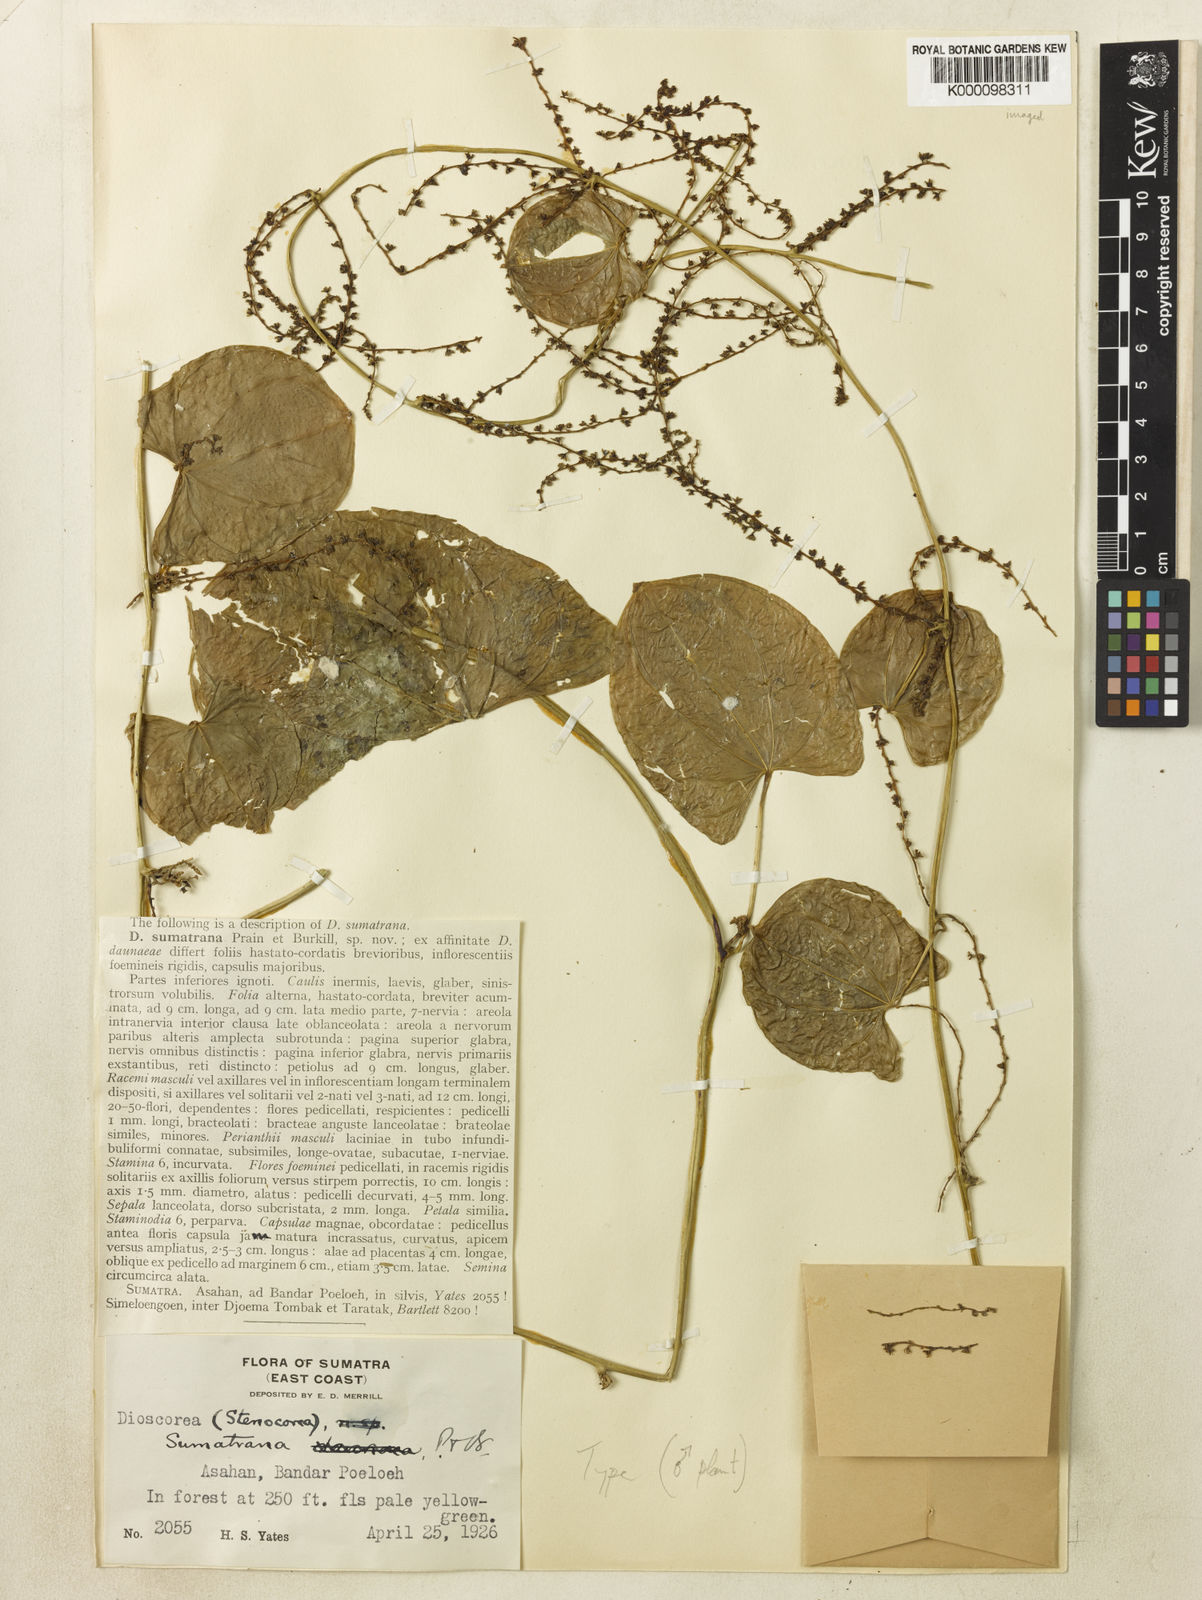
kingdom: Plantae
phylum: Tracheophyta
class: Liliopsida
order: Dioscoreales
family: Dioscoreaceae
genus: Dioscorea
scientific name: Dioscorea sumatrana
